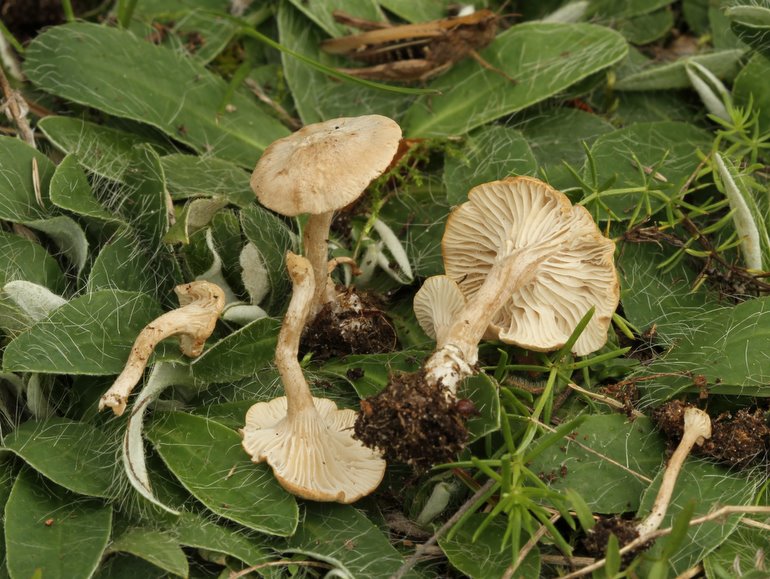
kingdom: Fungi
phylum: Basidiomycota
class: Agaricomycetes
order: Agaricales
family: Hygrophoraceae
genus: Spodocybe
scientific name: Spodocybe collina
